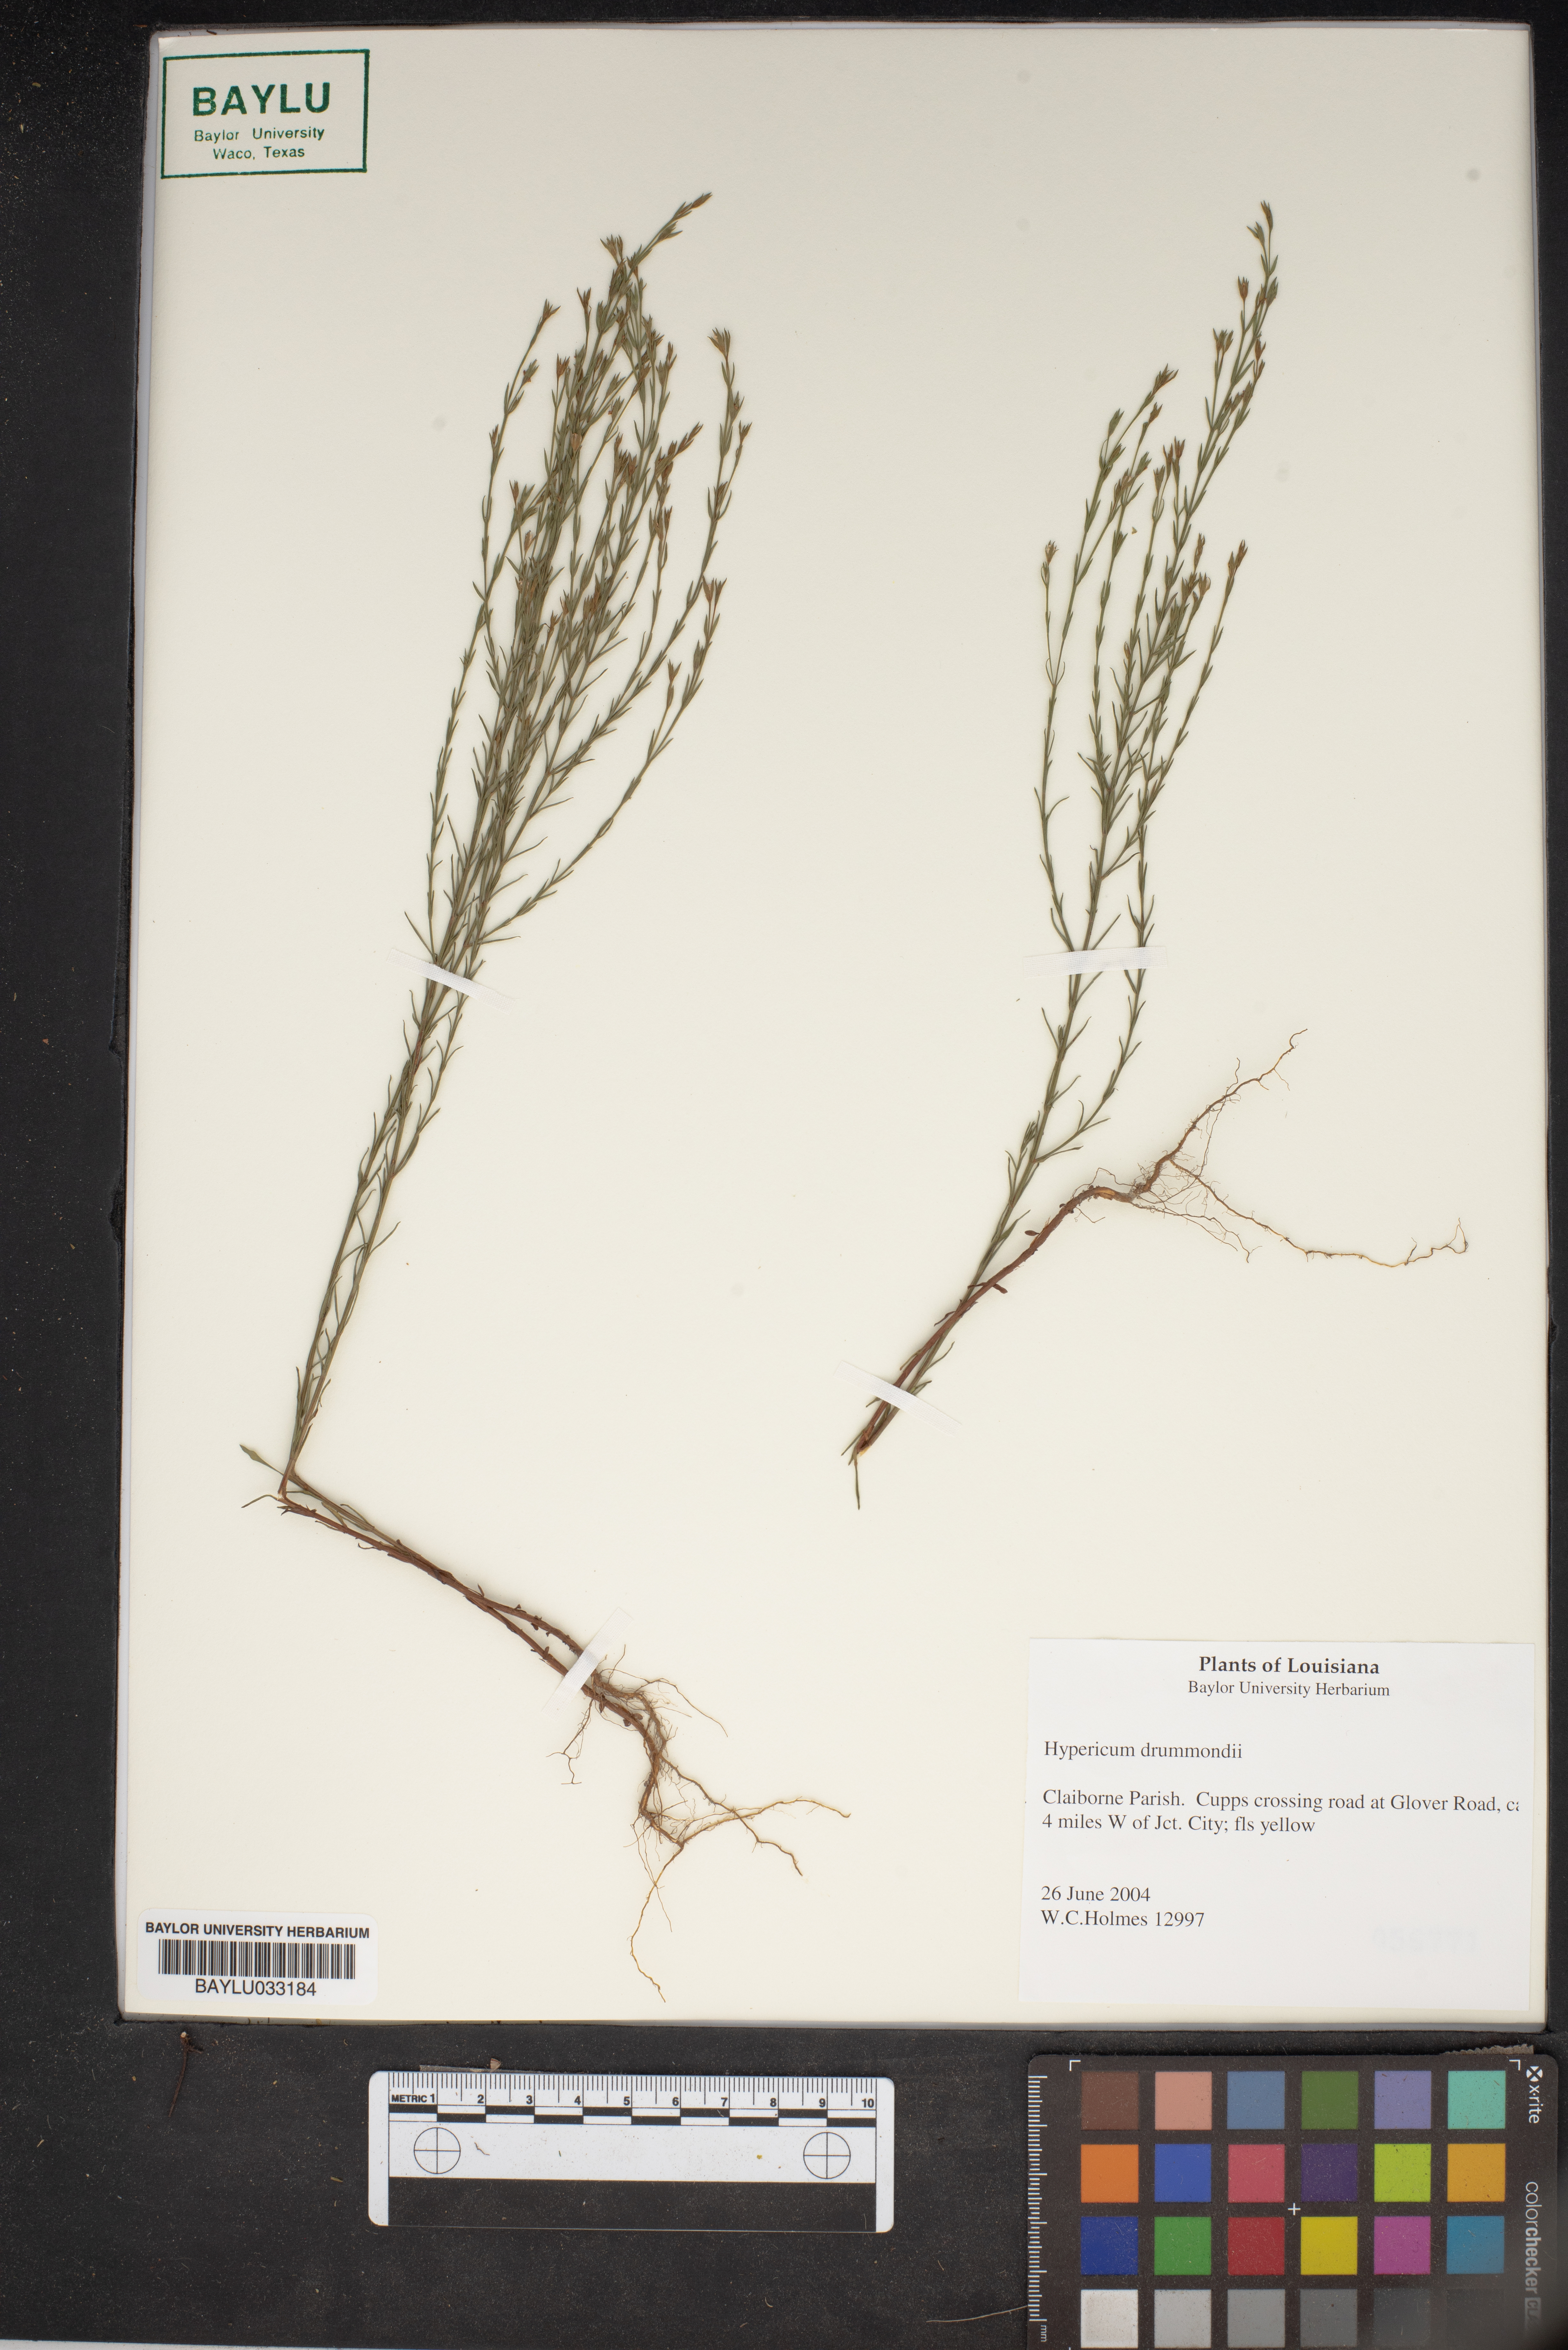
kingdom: Plantae
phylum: Tracheophyta
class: Magnoliopsida
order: Malpighiales
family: Hypericaceae
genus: Hypericum
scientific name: Hypericum drummondii
